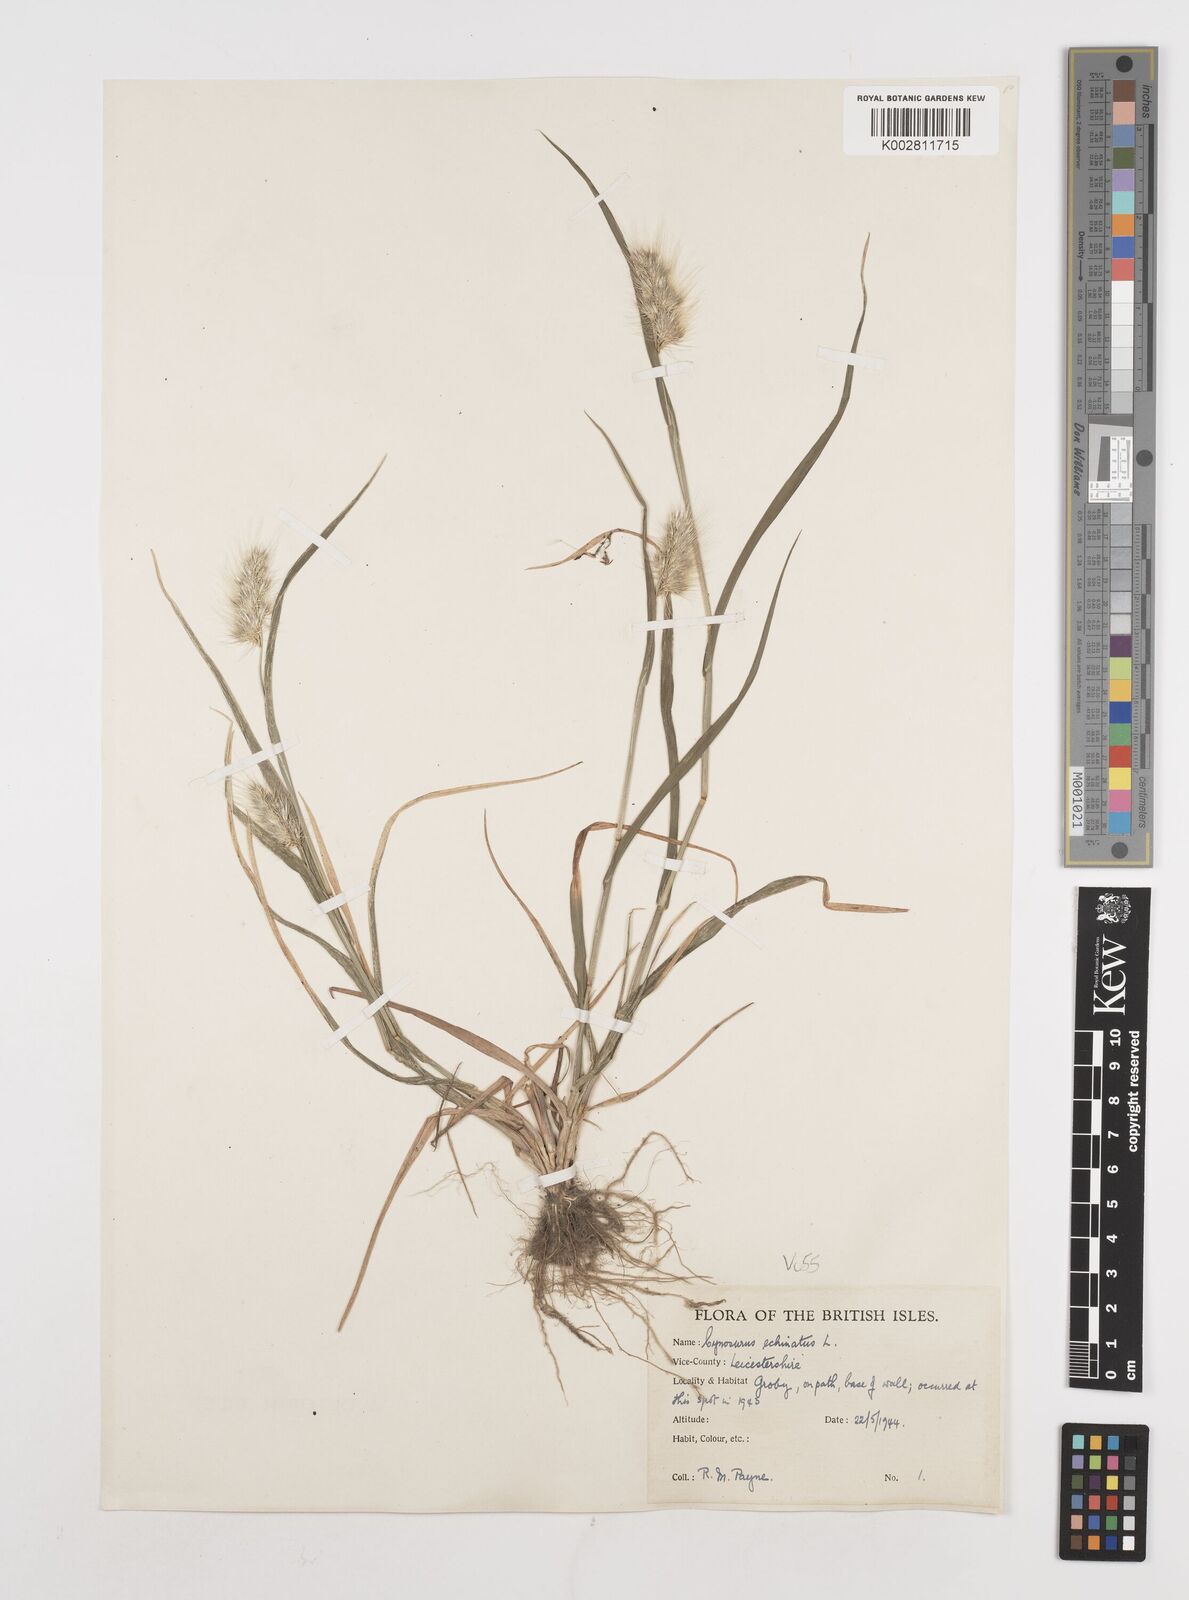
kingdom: Plantae
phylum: Tracheophyta
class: Liliopsida
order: Poales
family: Poaceae
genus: Cynosurus
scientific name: Cynosurus echinatus
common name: Rough dog's-tail
